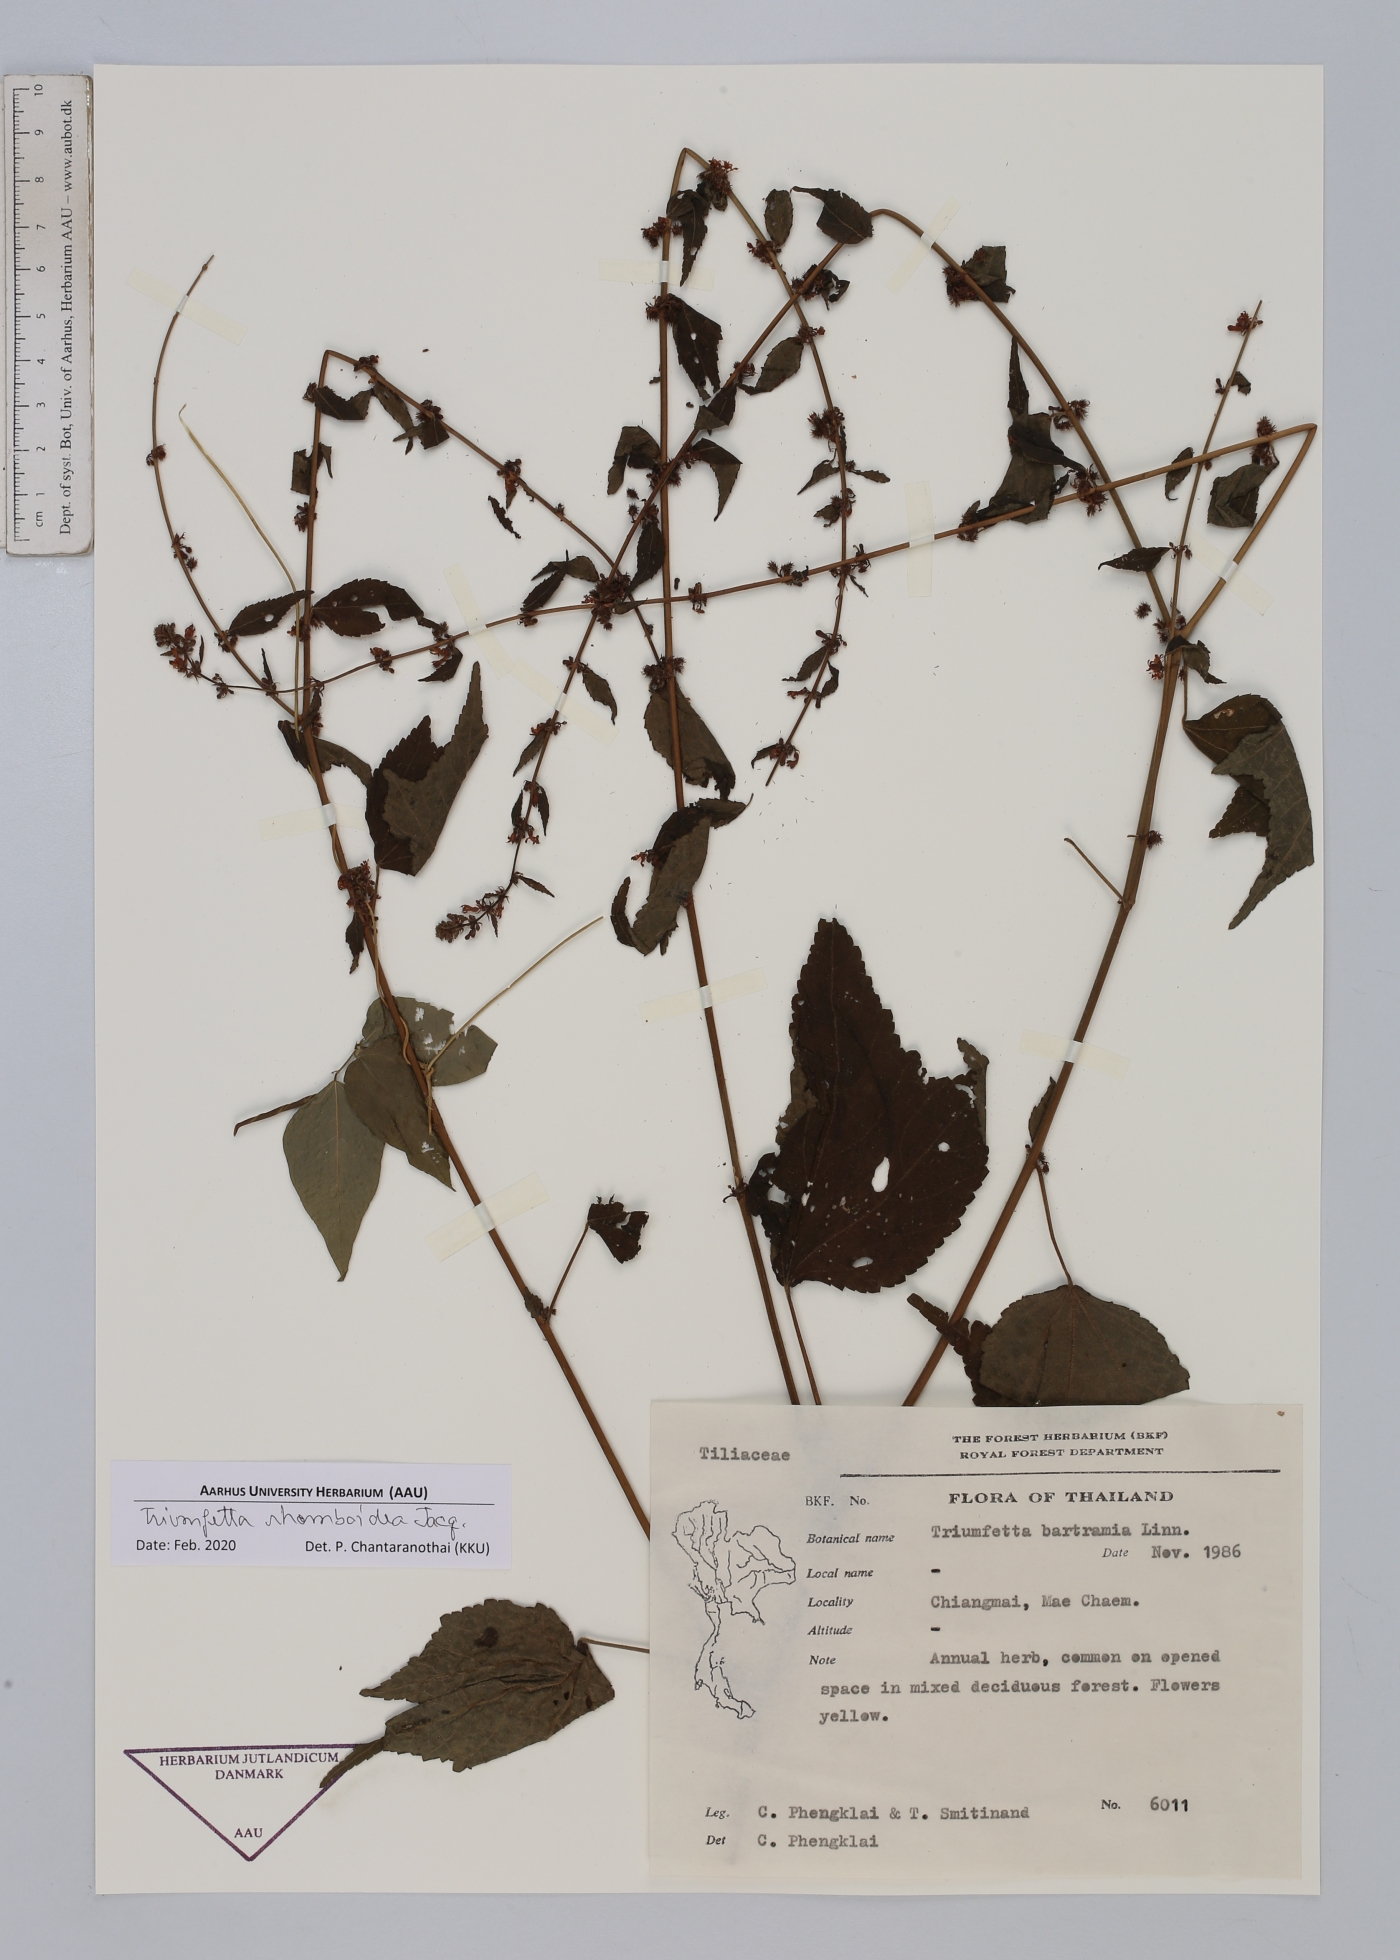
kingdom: Plantae
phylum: Tracheophyta
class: Magnoliopsida
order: Malvales
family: Malvaceae
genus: Triumfetta
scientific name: Triumfetta rhomboidea
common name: Diamond burbark
